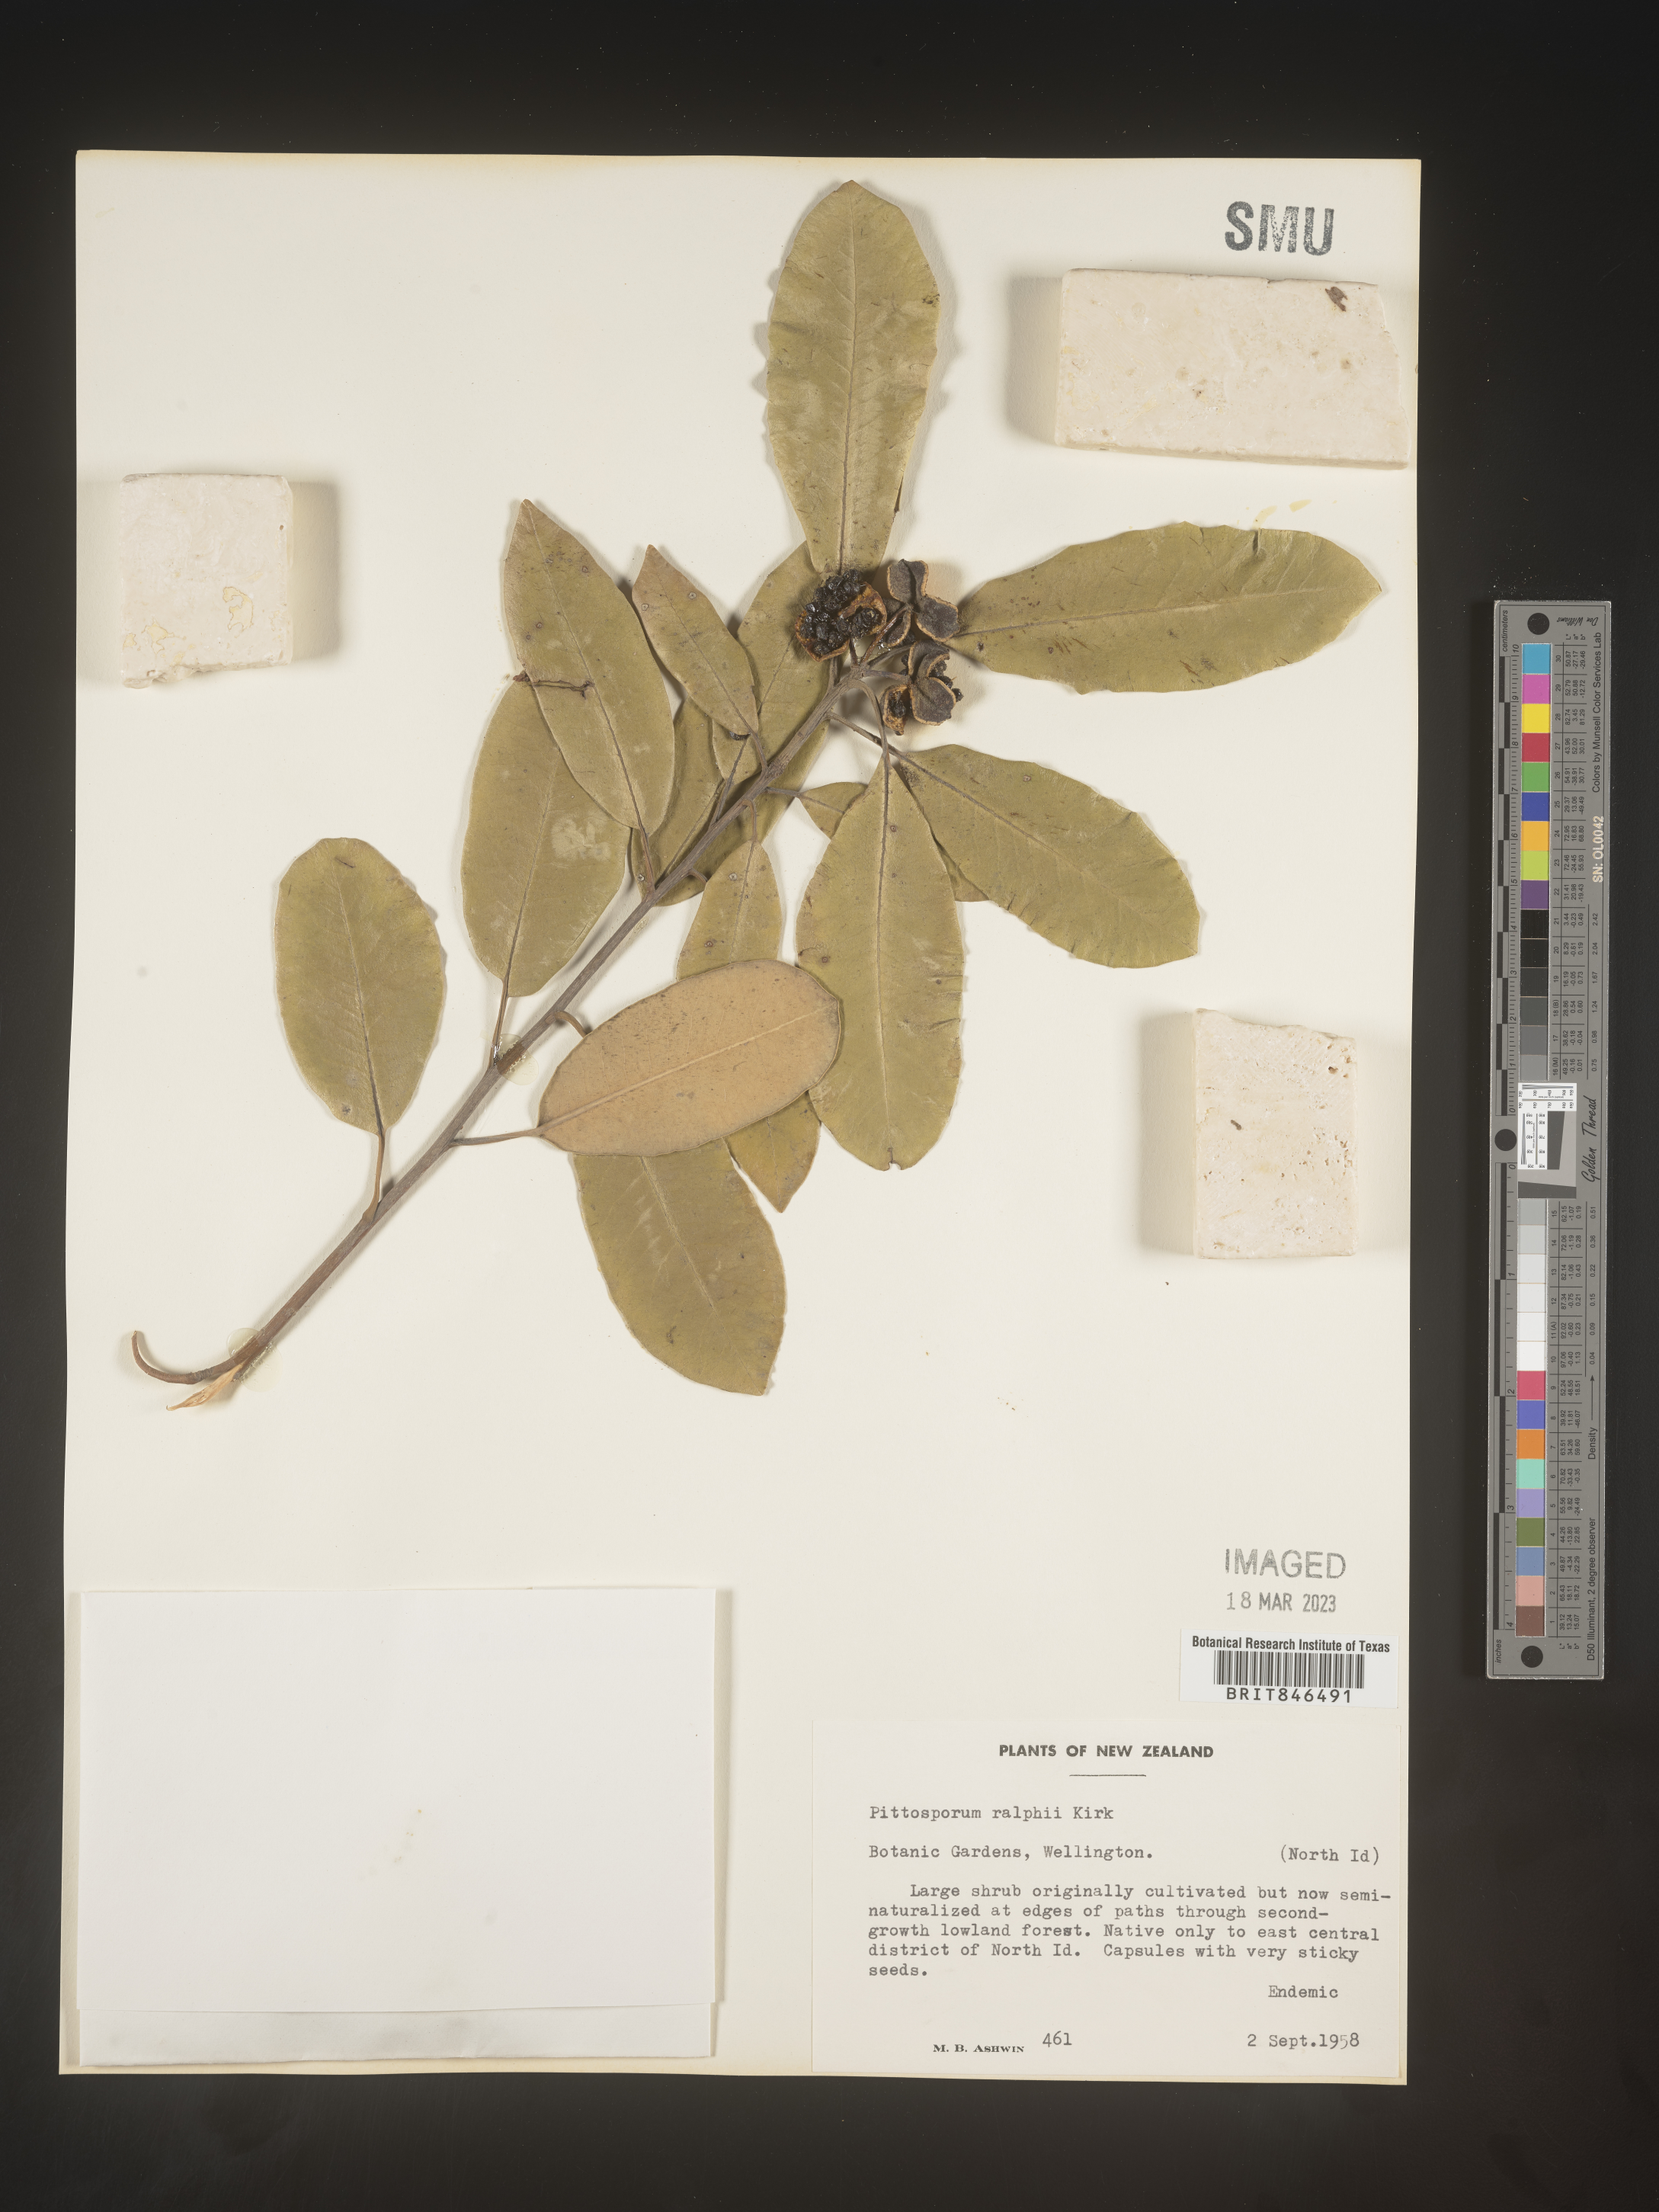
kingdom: Plantae
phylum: Tracheophyta
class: Magnoliopsida
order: Apiales
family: Pittosporaceae
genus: Pittosporum
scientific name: Pittosporum
